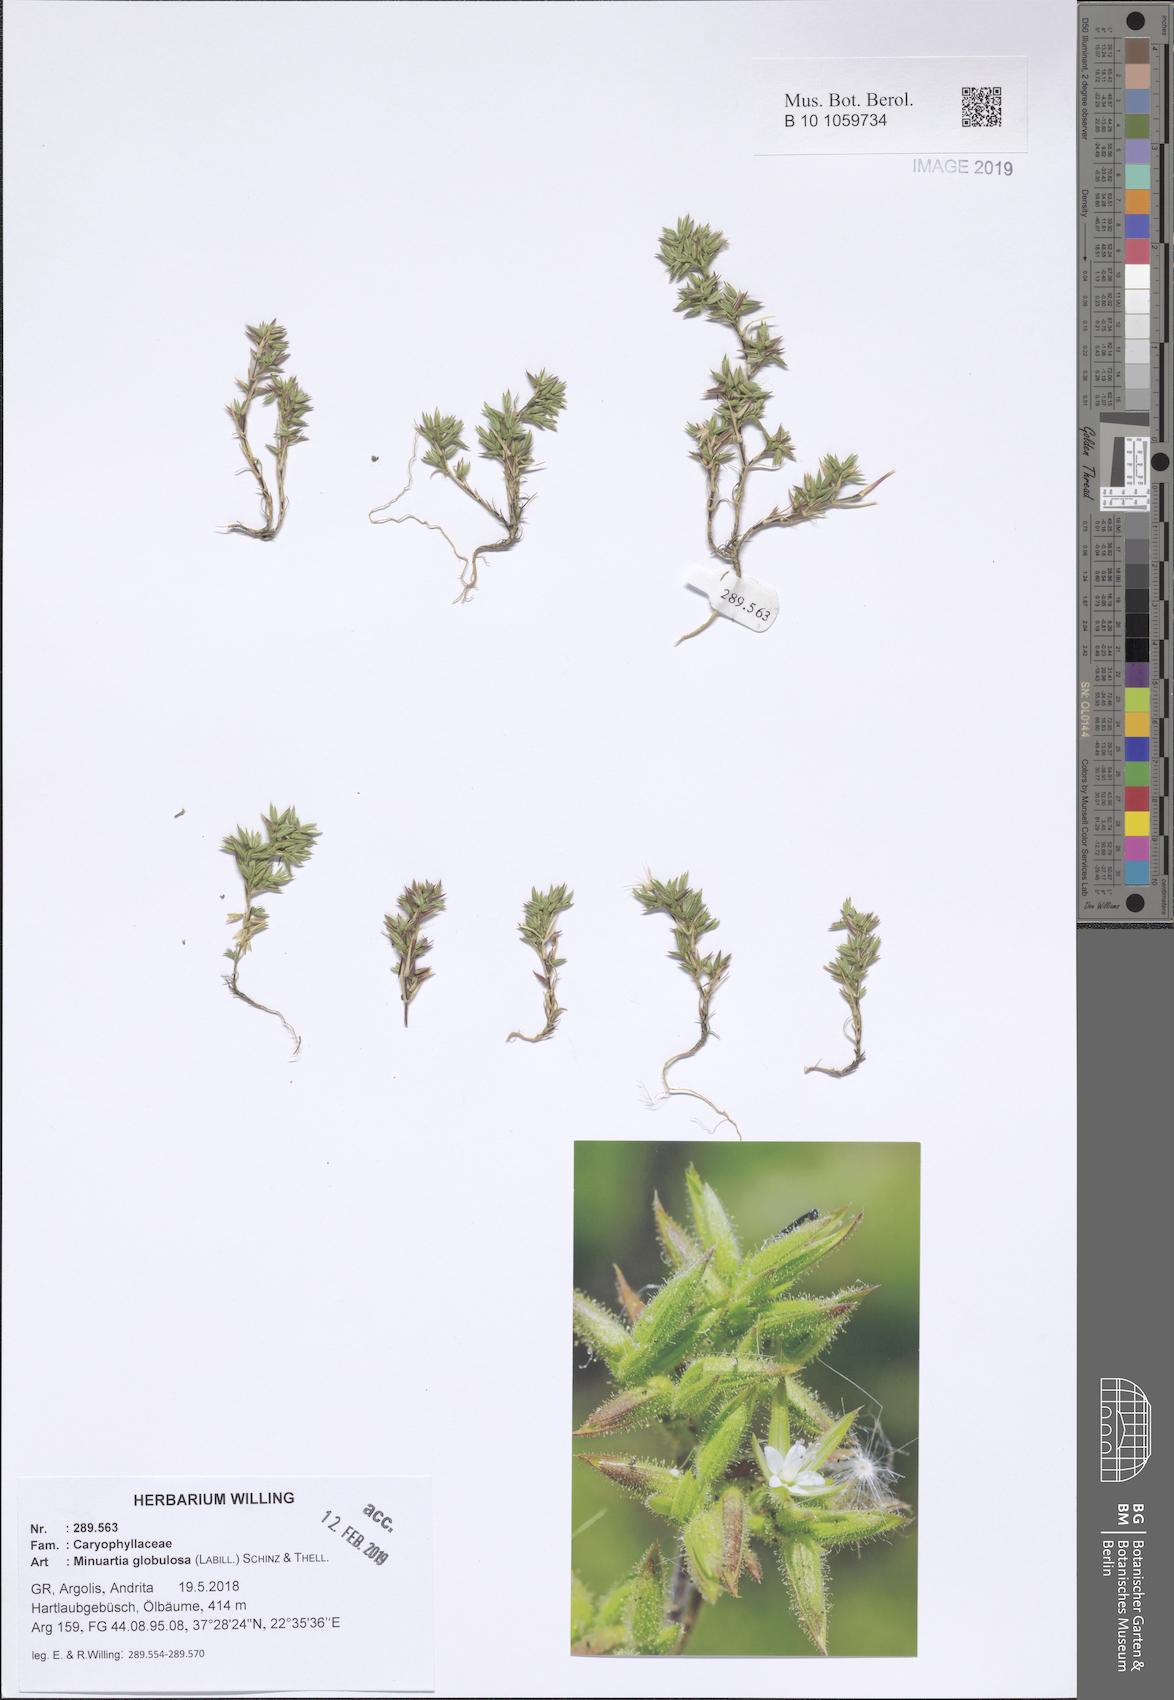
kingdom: Plantae
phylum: Tracheophyta
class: Magnoliopsida
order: Caryophyllales
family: Caryophyllaceae
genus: Minuartia
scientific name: Minuartia globulosa
